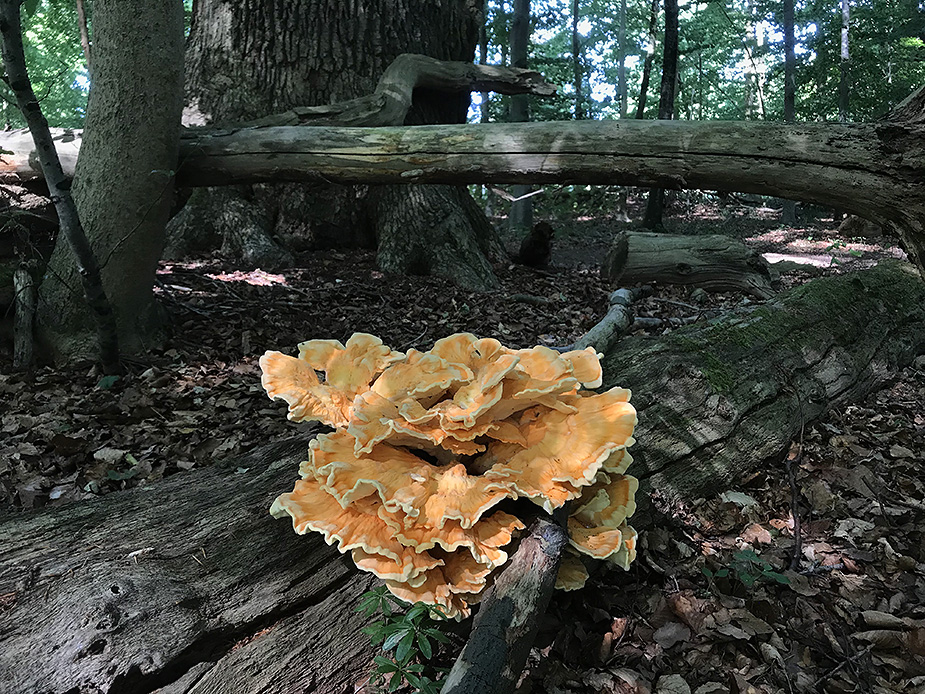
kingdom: Fungi
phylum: Basidiomycota
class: Agaricomycetes
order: Polyporales
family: Laetiporaceae
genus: Laetiporus
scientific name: Laetiporus sulphureus
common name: svovlporesvamp
